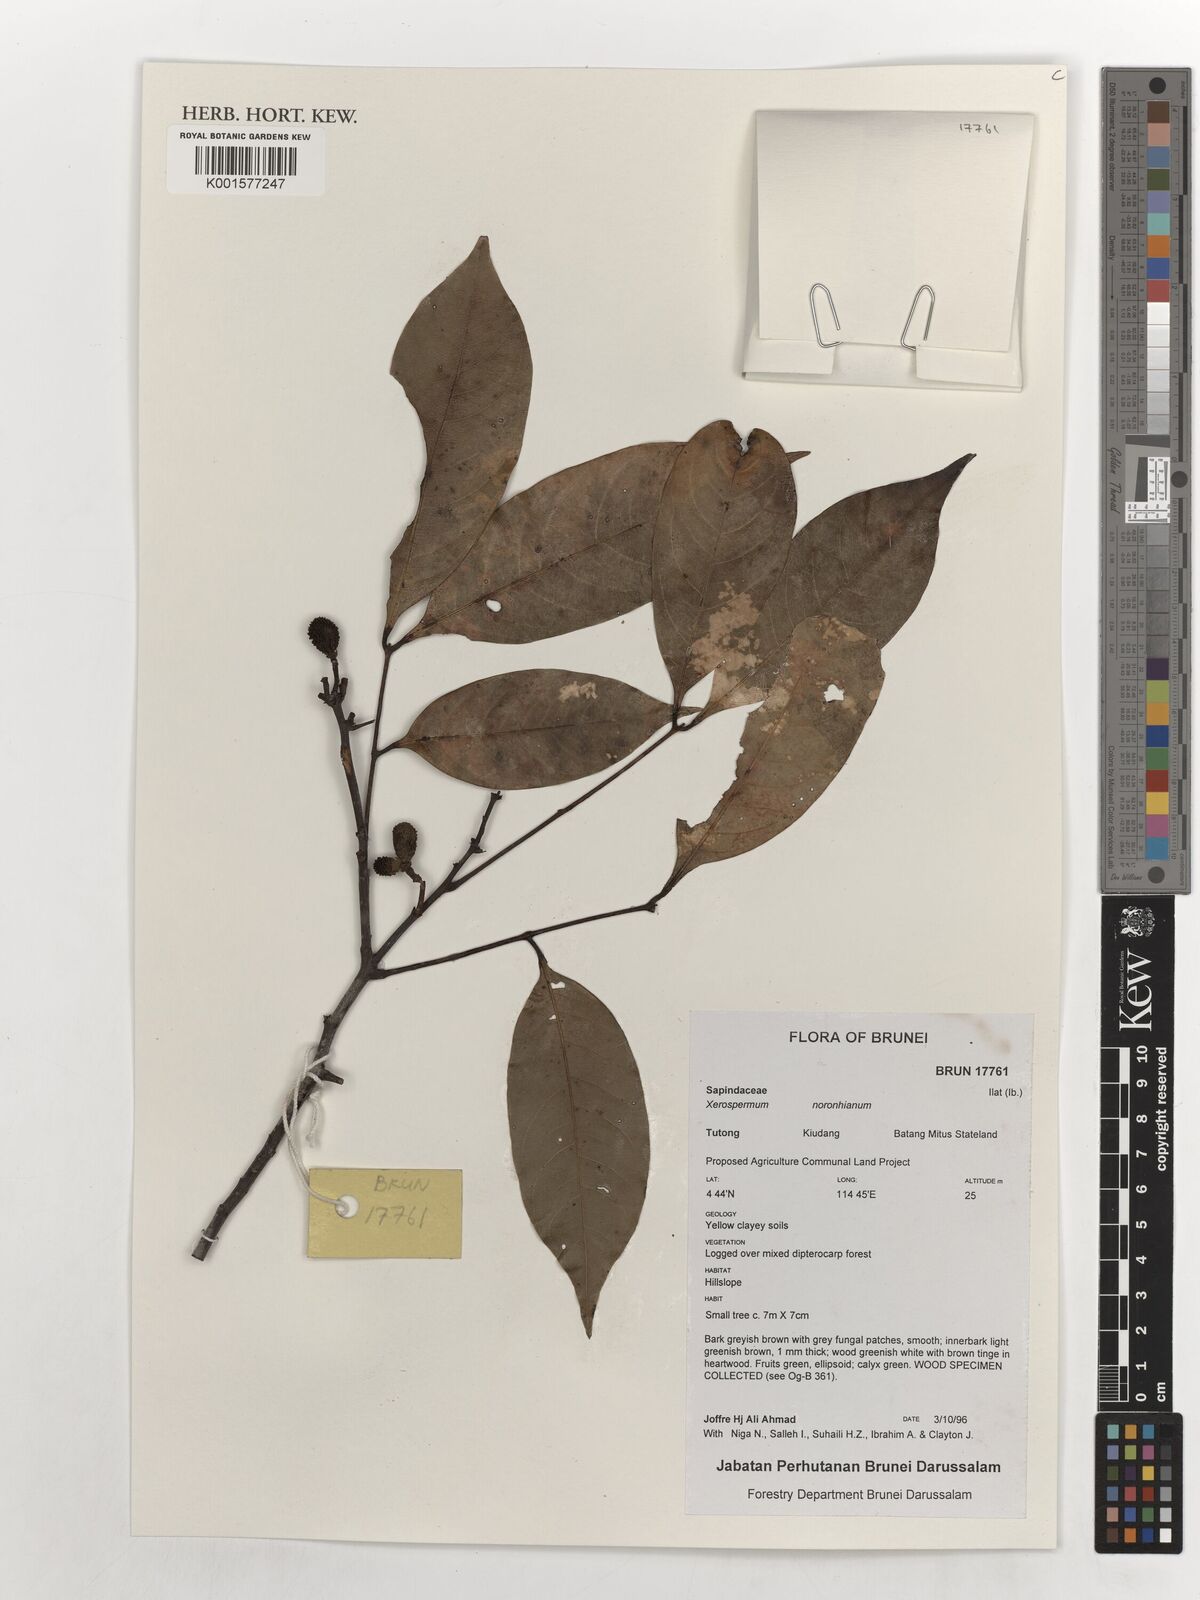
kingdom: Plantae
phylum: Tracheophyta
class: Magnoliopsida
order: Sapindales
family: Sapindaceae
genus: Xerospermum
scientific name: Xerospermum noronhianum
